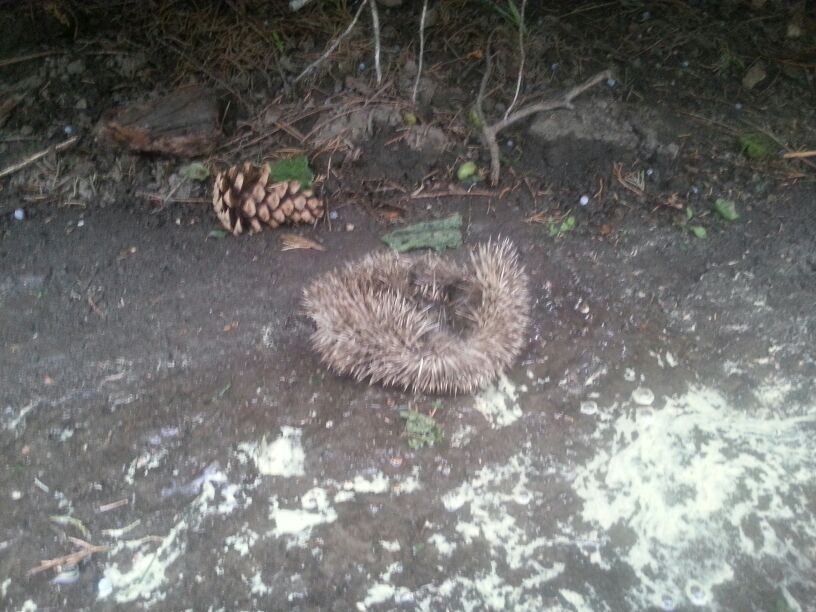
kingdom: Animalia
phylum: Chordata
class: Mammalia
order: Erinaceomorpha
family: Erinaceidae
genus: Erinaceus
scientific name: Erinaceus
